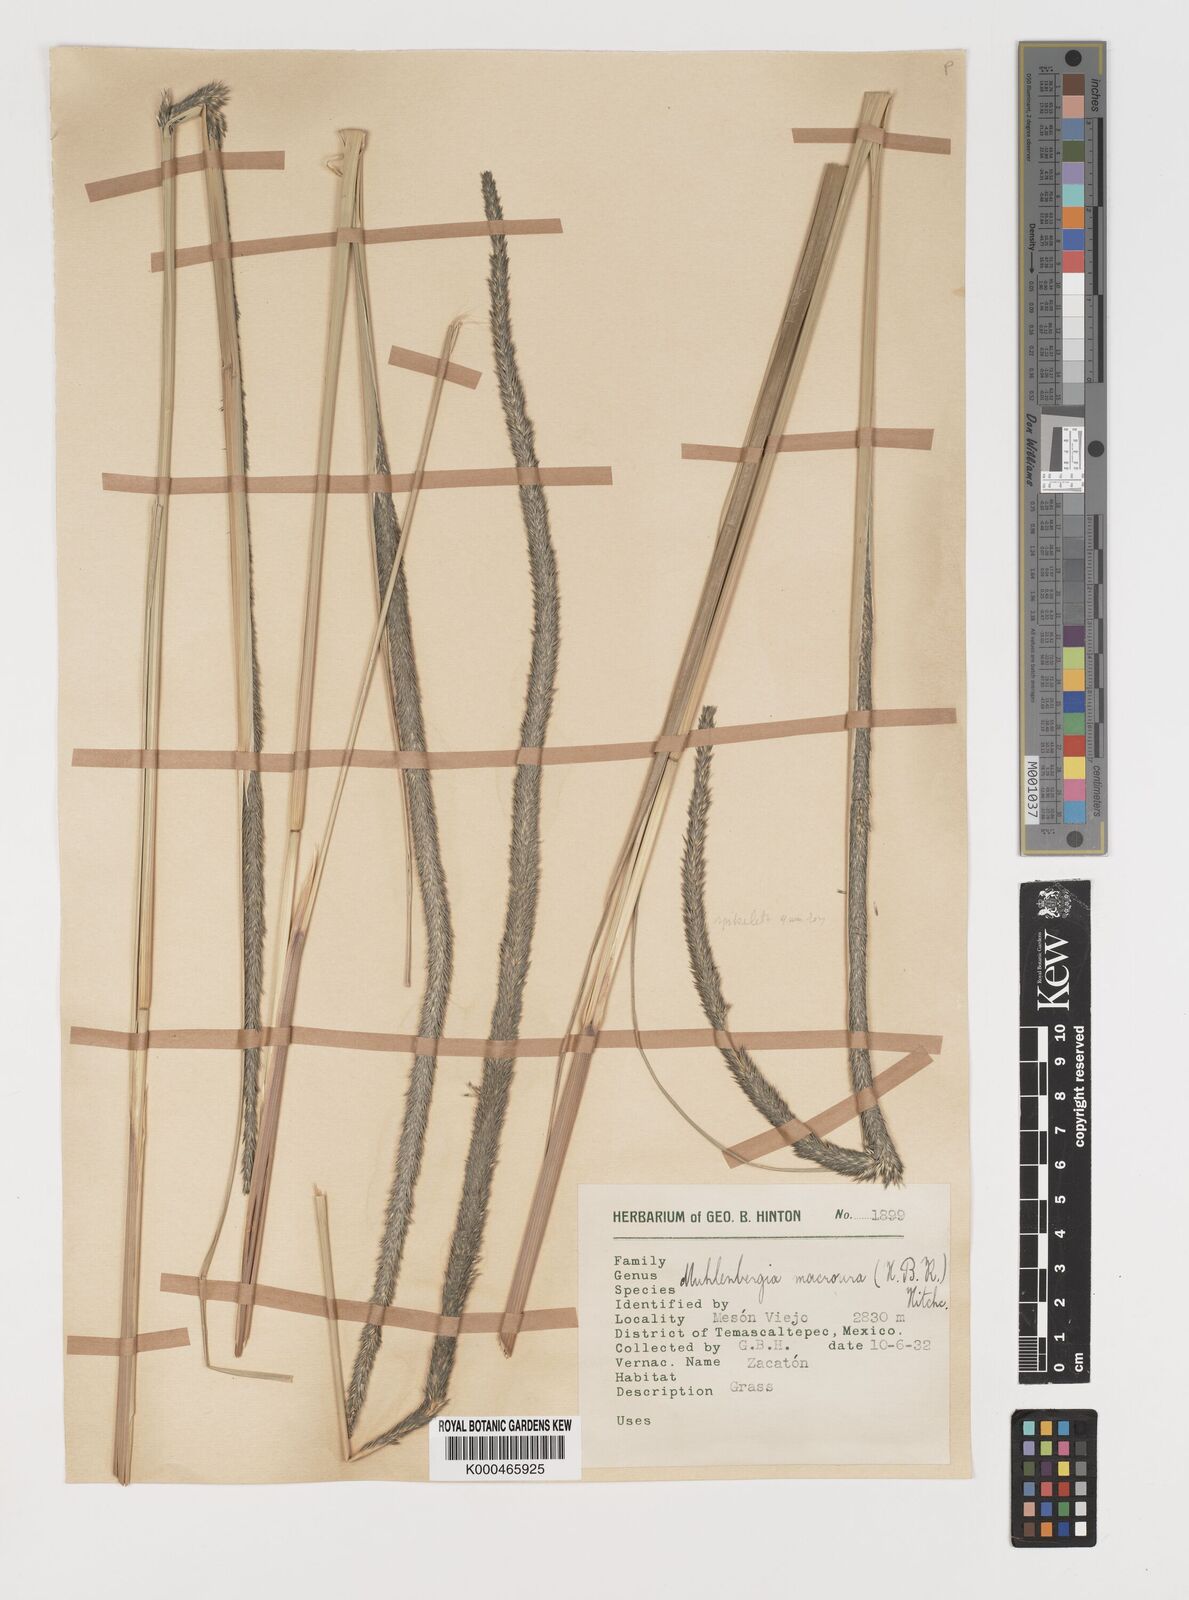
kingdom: Plantae
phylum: Tracheophyta
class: Liliopsida
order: Poales
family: Poaceae
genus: Muhlenbergia
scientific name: Muhlenbergia macroura
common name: Mexican broomroot
